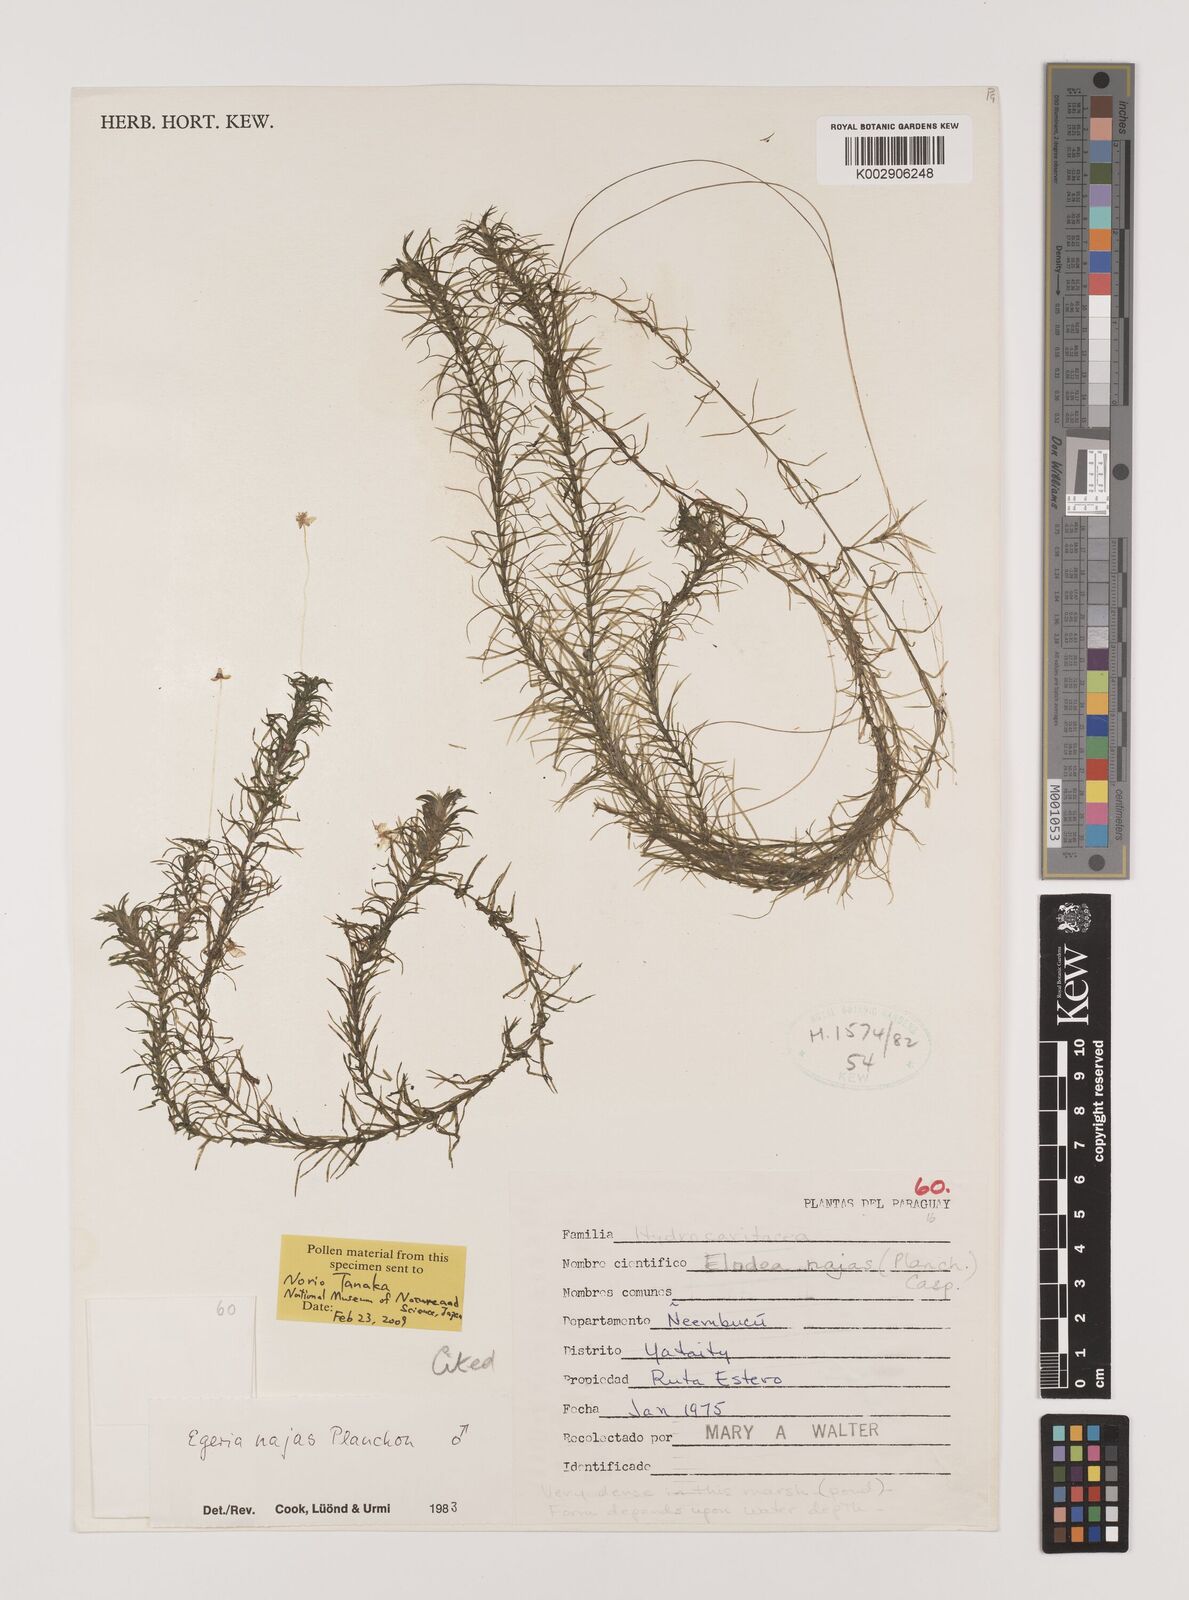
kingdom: Plantae
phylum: Tracheophyta
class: Liliopsida
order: Alismatales
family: Hydrocharitaceae
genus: Elodea
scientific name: Elodea najas
